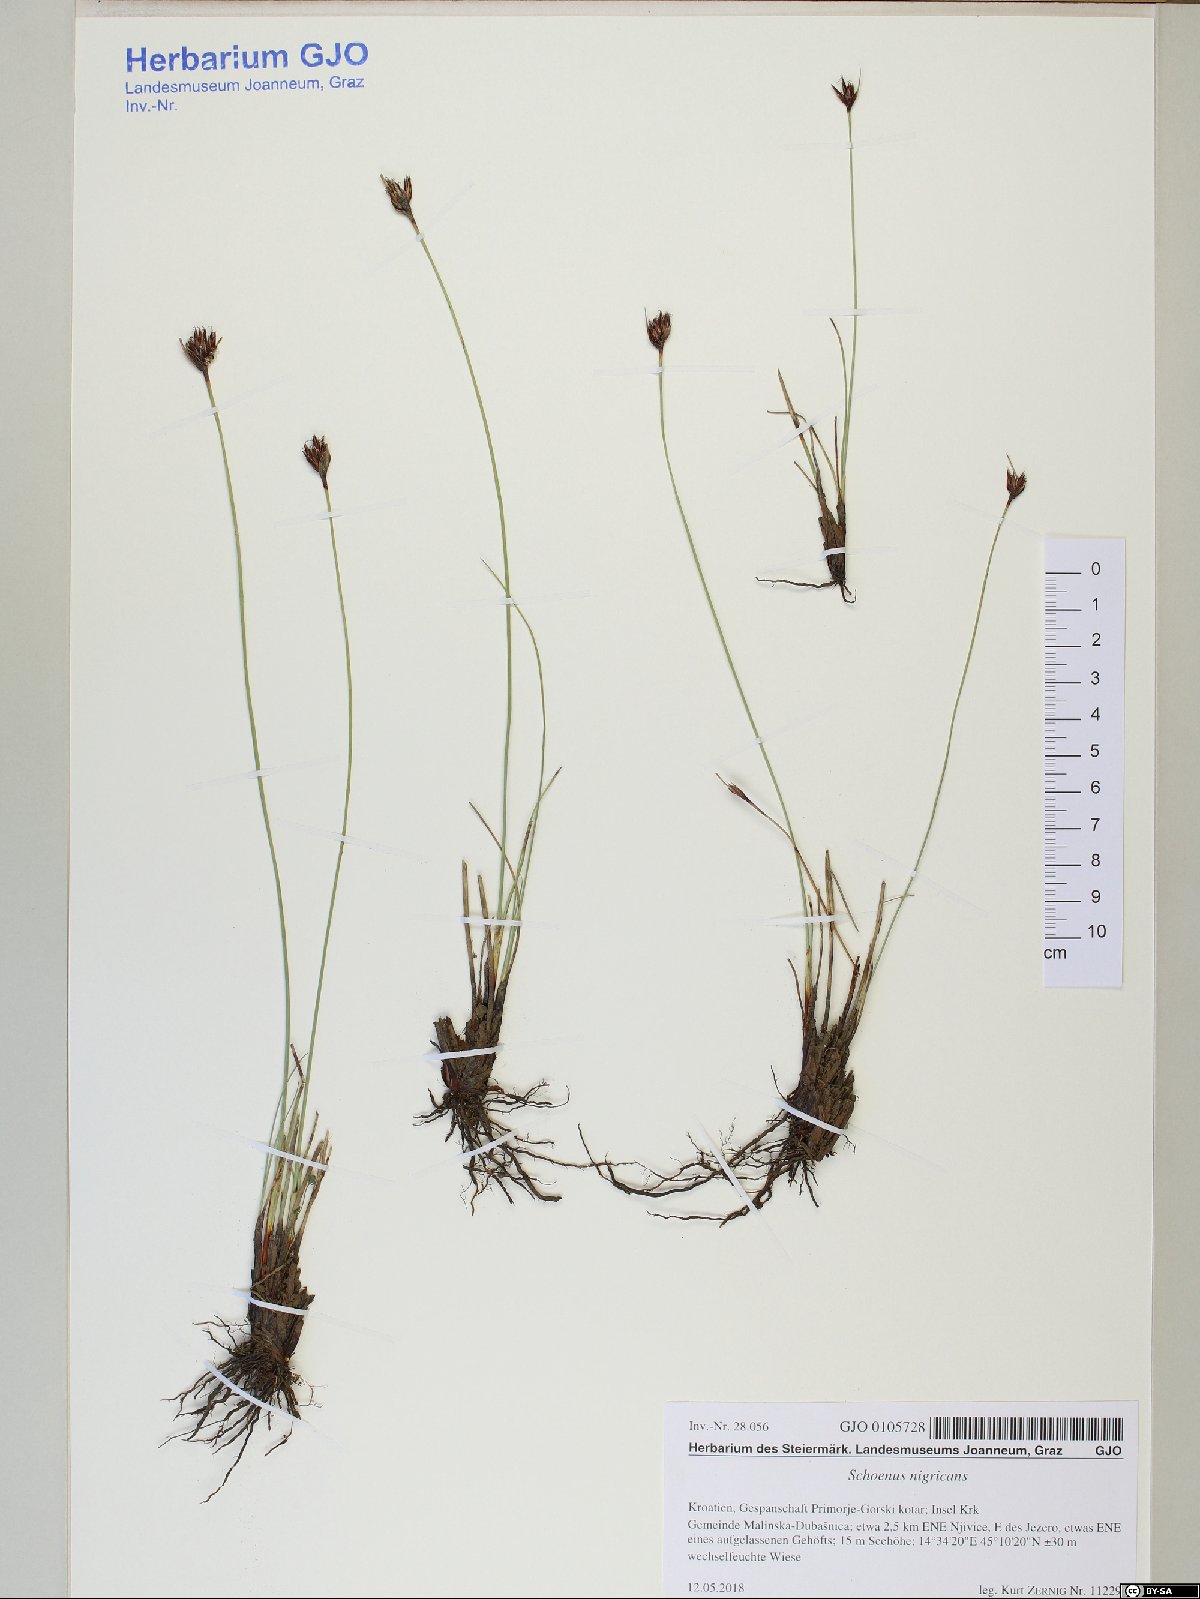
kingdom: Plantae
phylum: Tracheophyta
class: Liliopsida
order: Poales
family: Cyperaceae
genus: Schoenus
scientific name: Schoenus nigricans
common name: Black bog-rush
